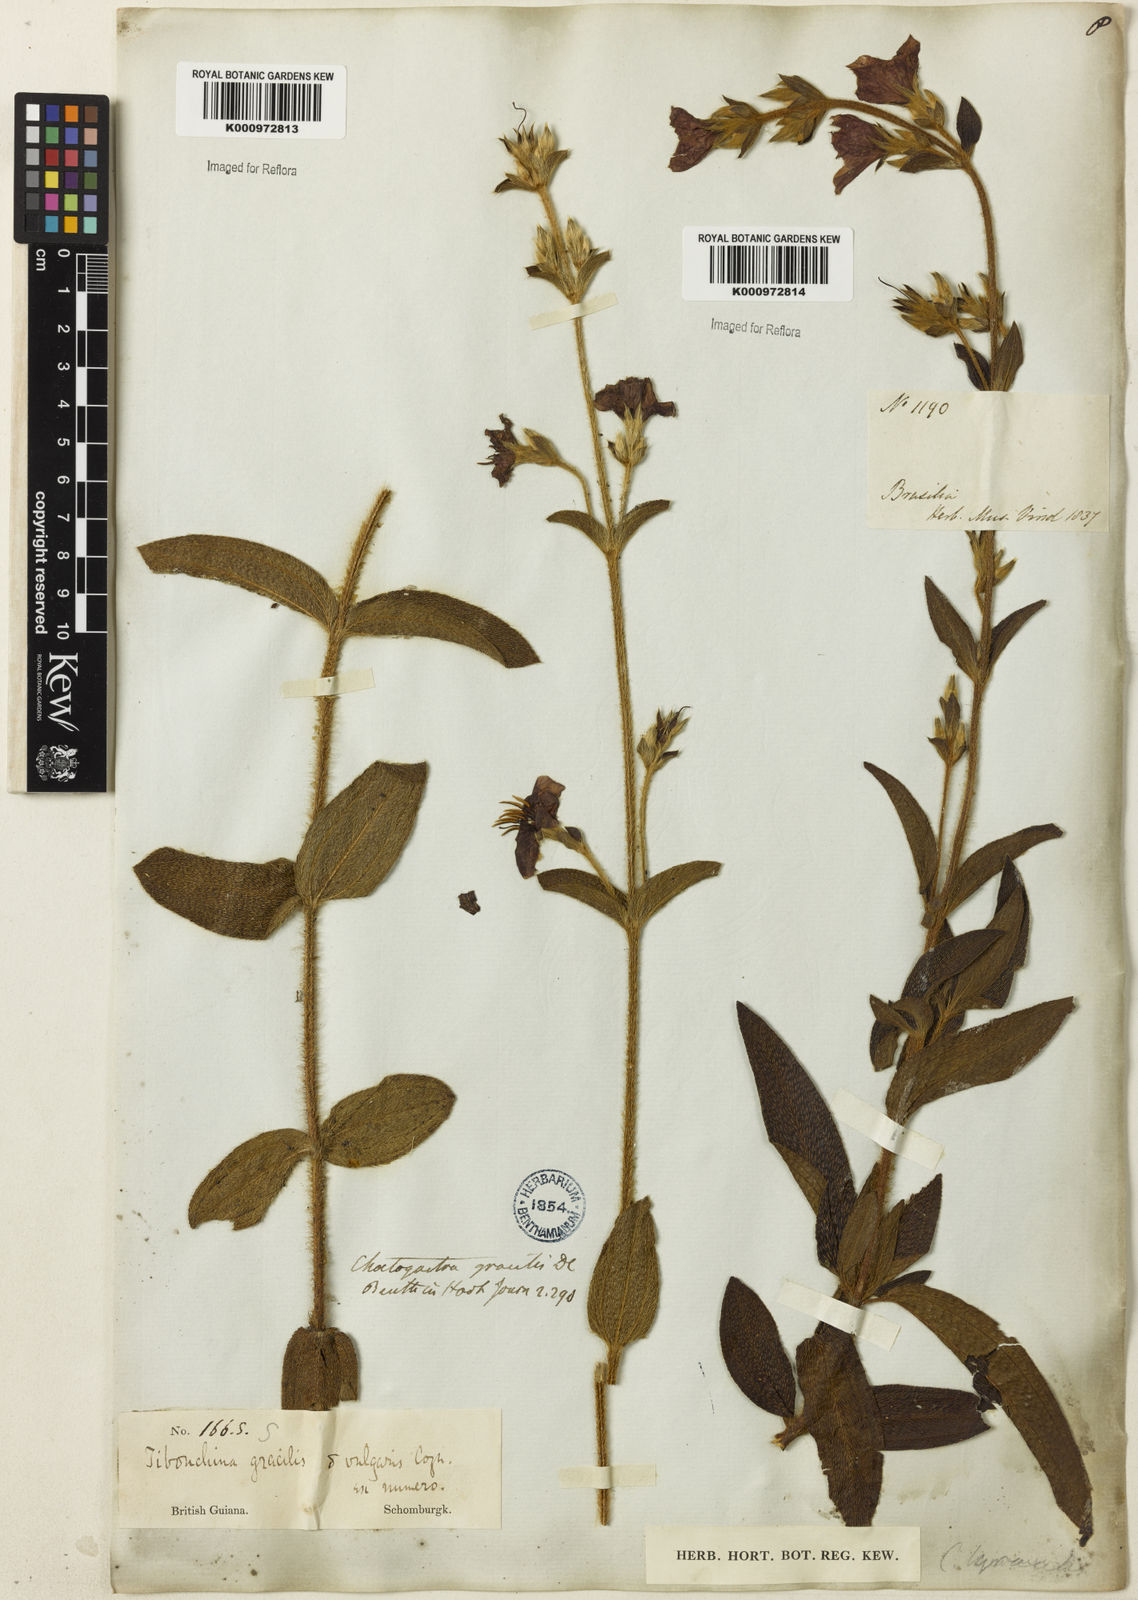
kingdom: Plantae
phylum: Tracheophyta
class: Magnoliopsida
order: Myrtales
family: Melastomataceae
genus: Chaetogastra
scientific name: Chaetogastra gracilis
